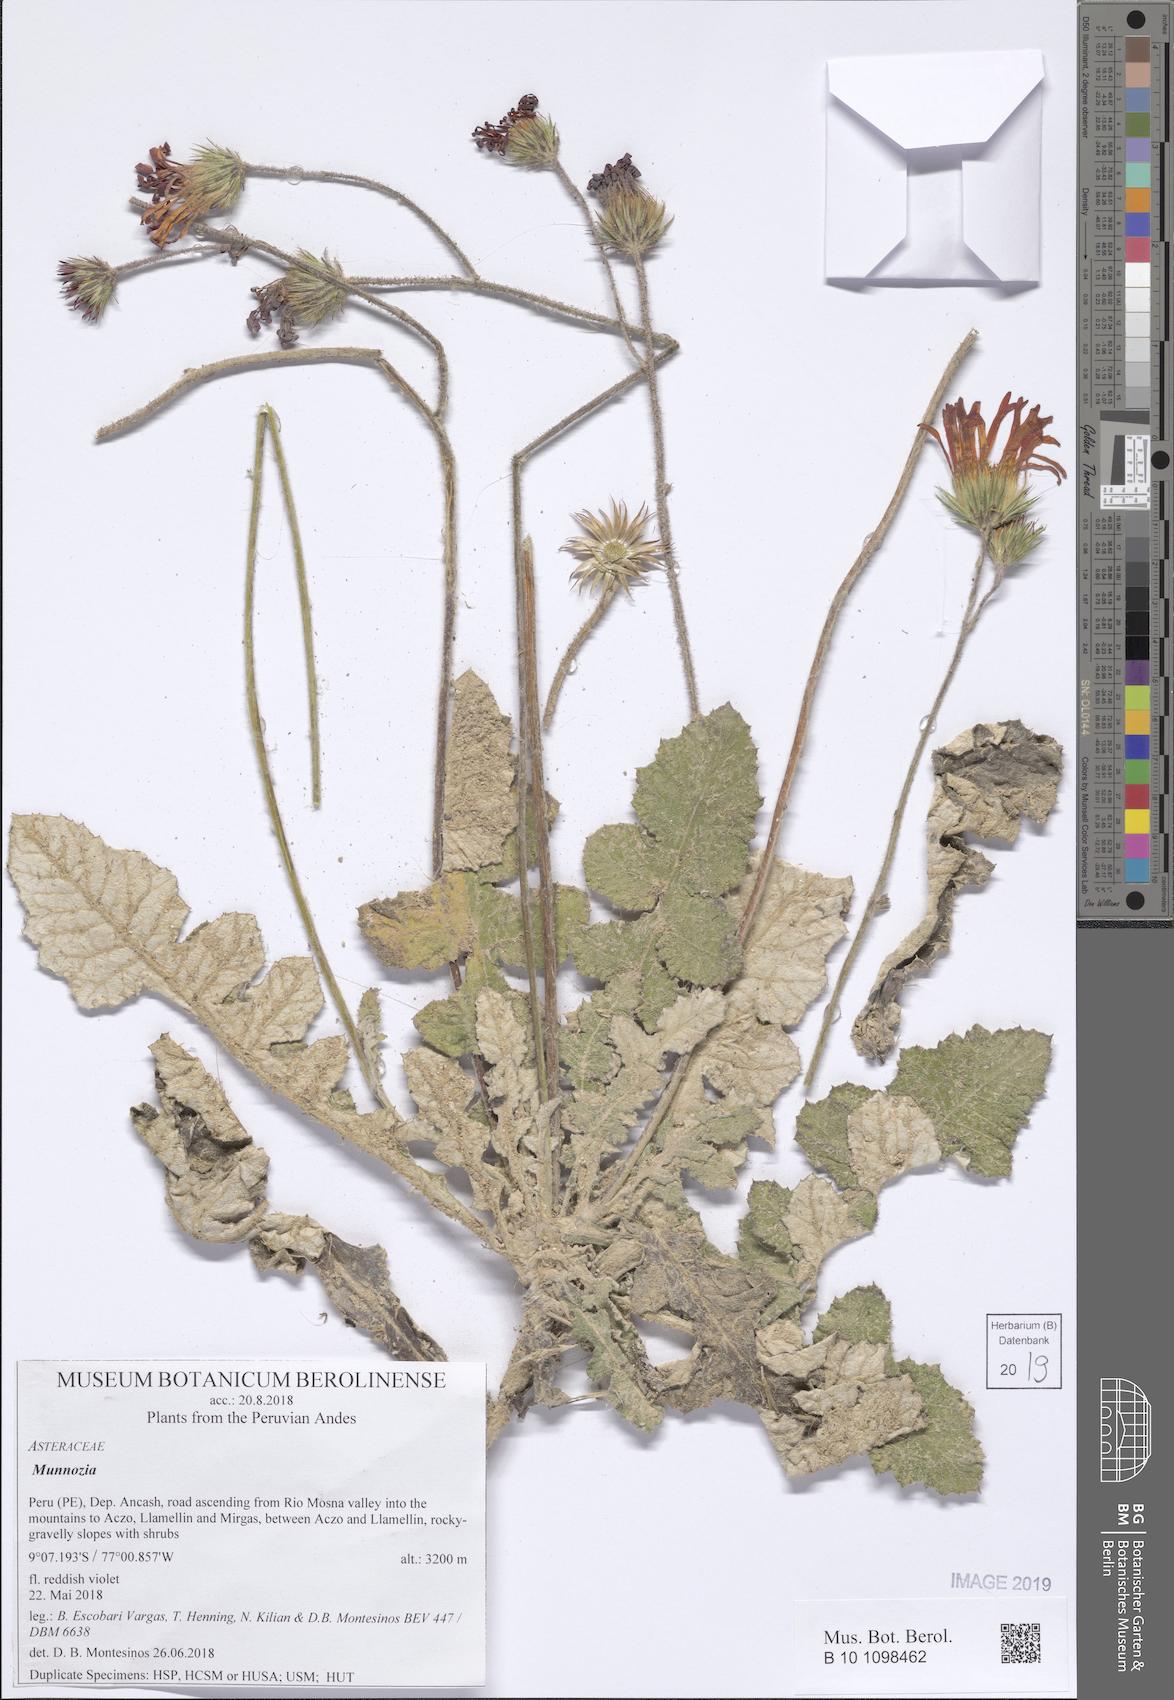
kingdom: Plantae
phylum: Tracheophyta
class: Magnoliopsida
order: Asterales
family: Asteraceae
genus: Pseudonoseris
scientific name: Pseudonoseris glandulosa
